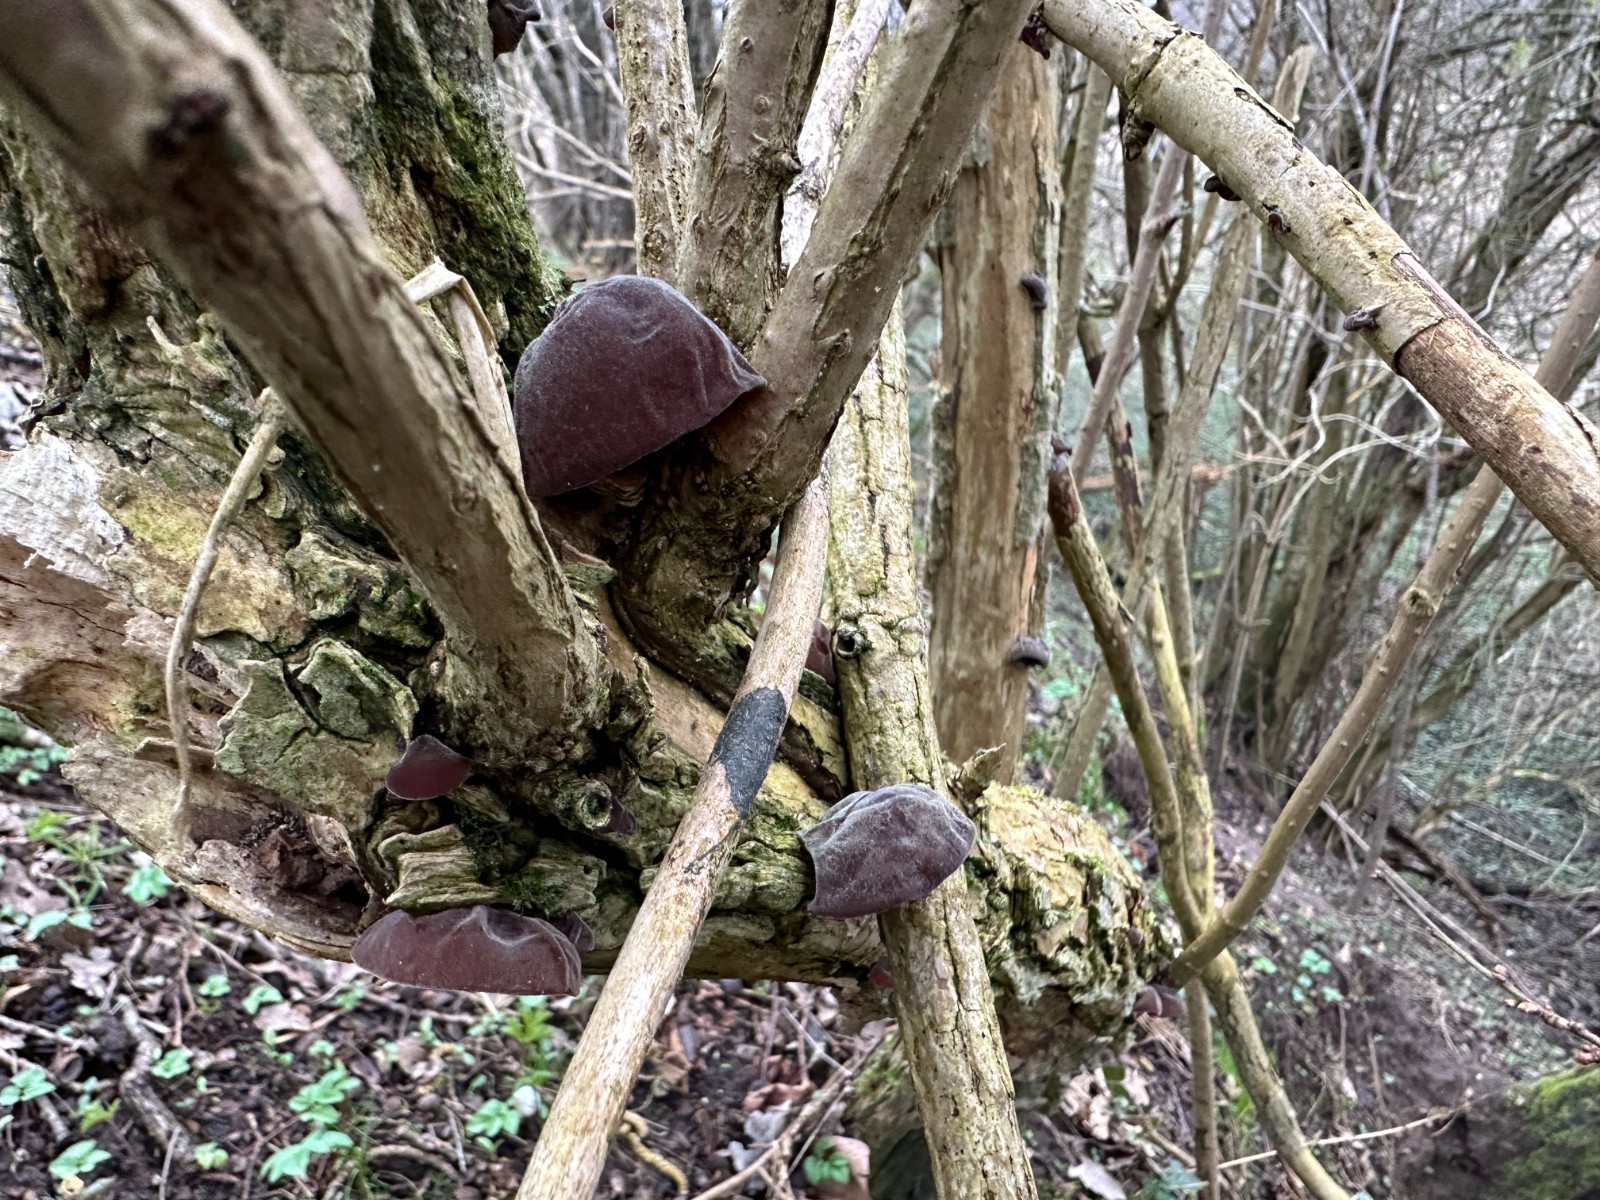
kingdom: Fungi
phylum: Basidiomycota
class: Agaricomycetes
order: Auriculariales
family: Auriculariaceae
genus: Auricularia
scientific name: Auricularia auricula-judae
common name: almindelig judasøre
